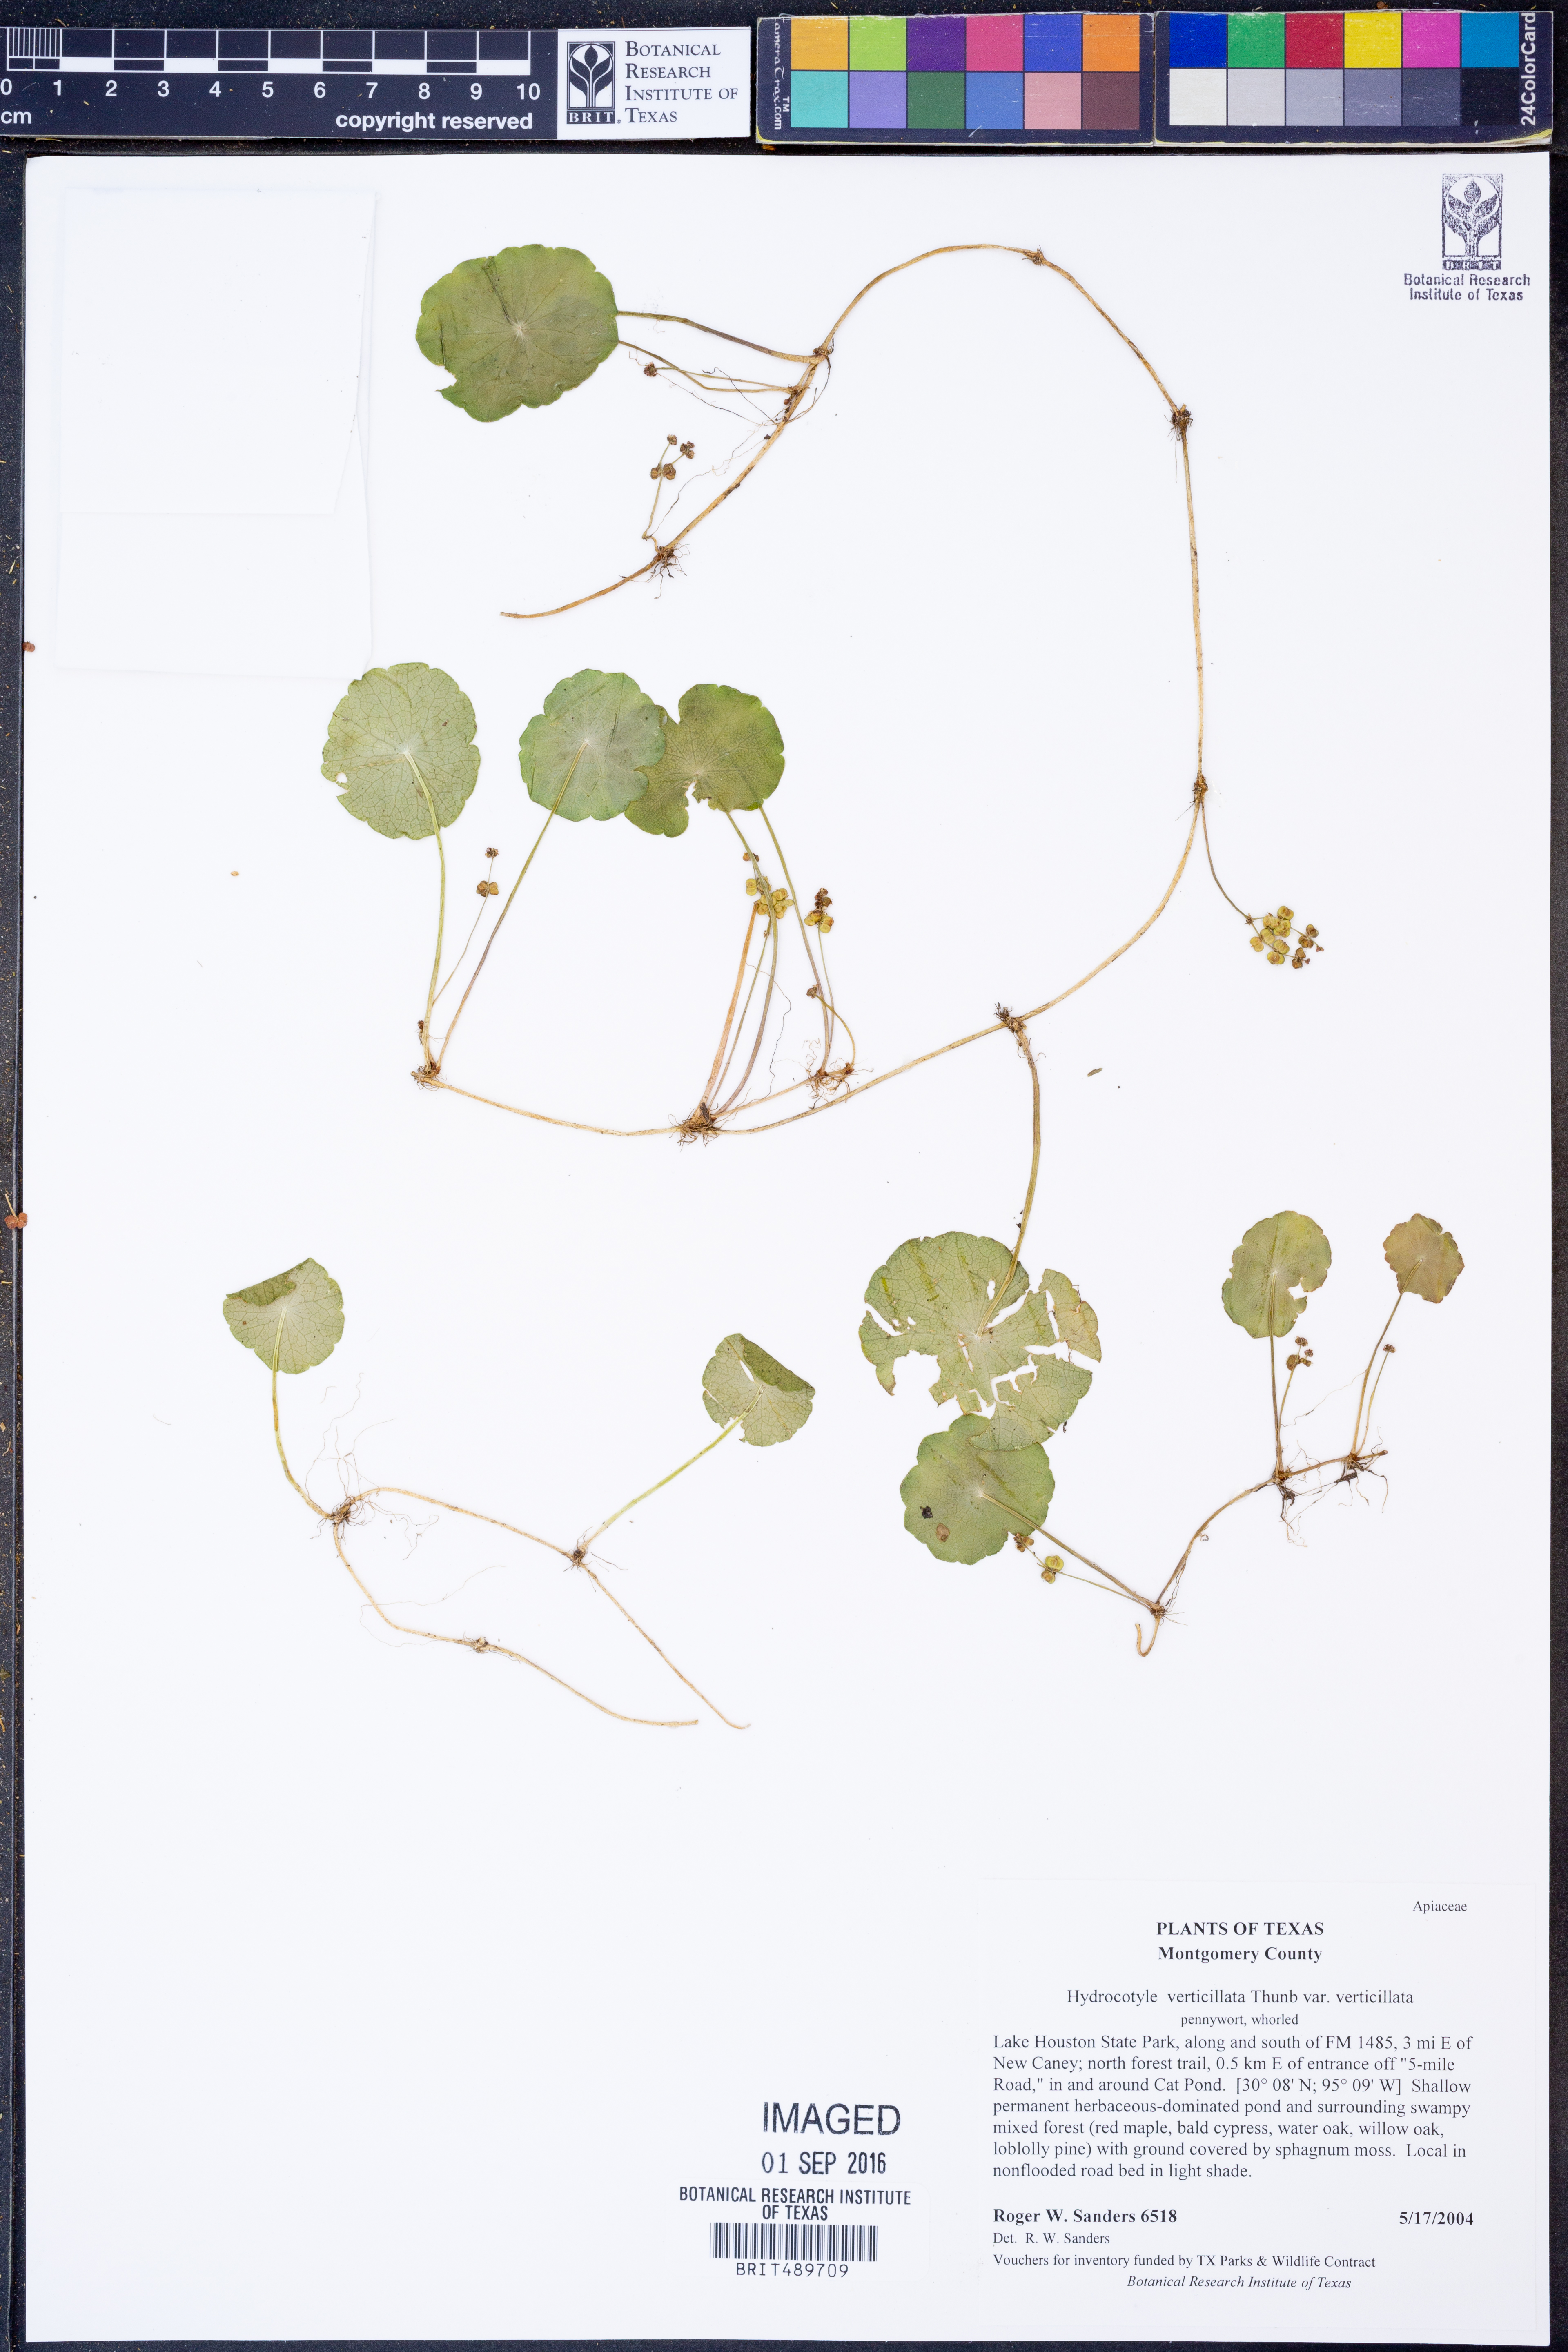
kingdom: Plantae
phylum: Tracheophyta
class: Magnoliopsida
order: Apiales
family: Araliaceae
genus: Hydrocotyle
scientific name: Hydrocotyle verticillata
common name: Whorled marshpennywort
